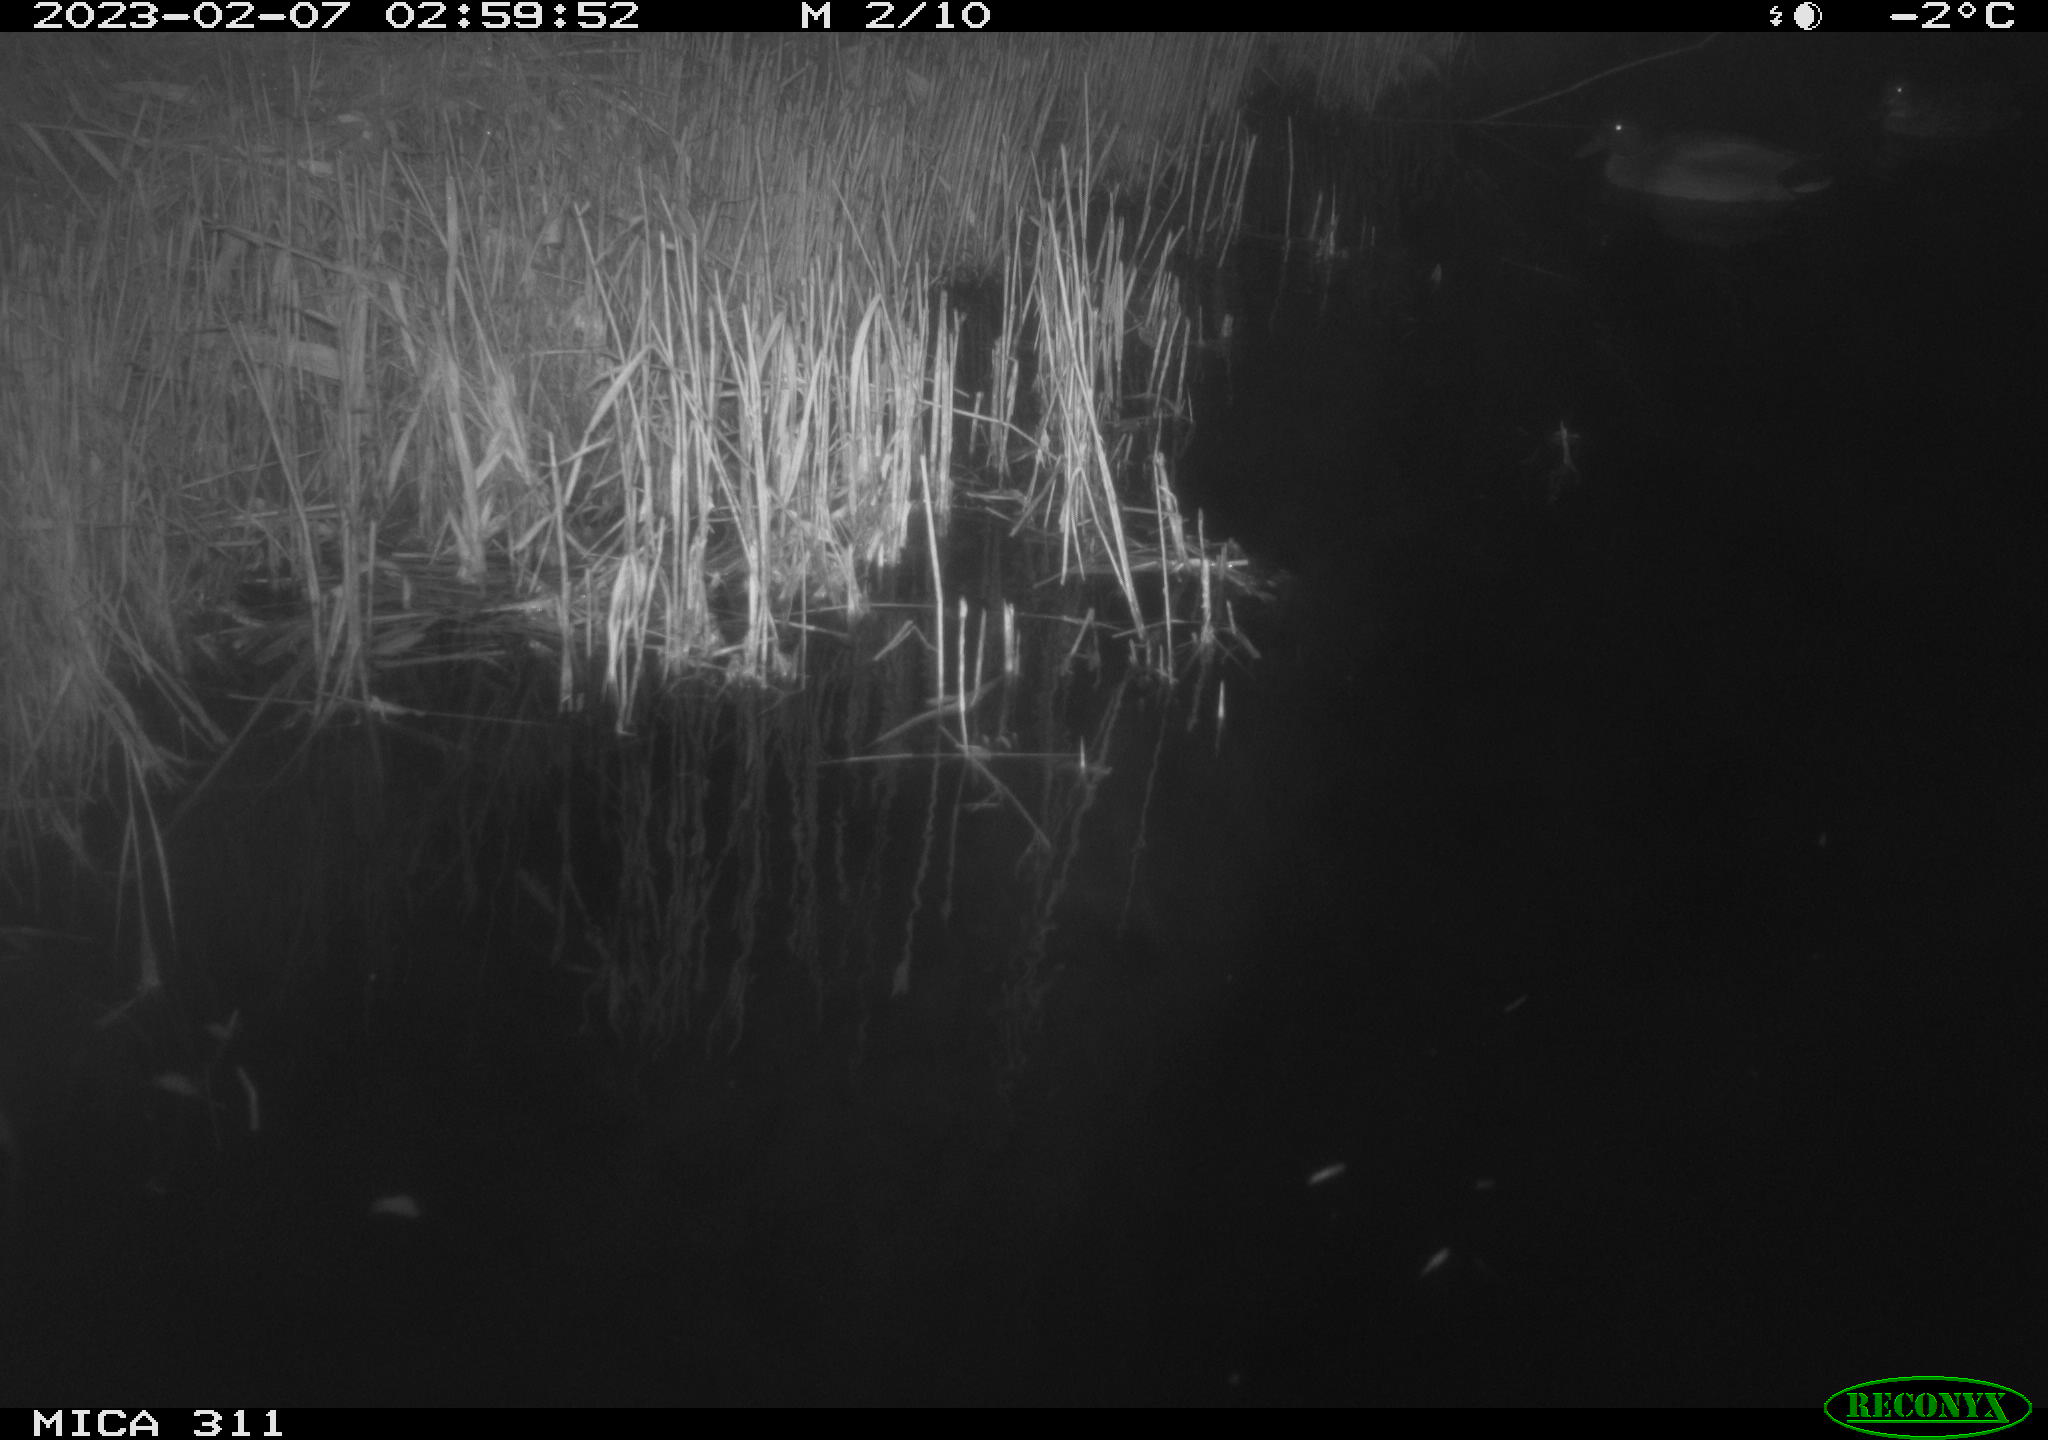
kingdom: Animalia
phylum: Chordata
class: Aves
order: Anseriformes
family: Anatidae
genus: Anas
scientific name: Anas platyrhynchos
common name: Mallard
